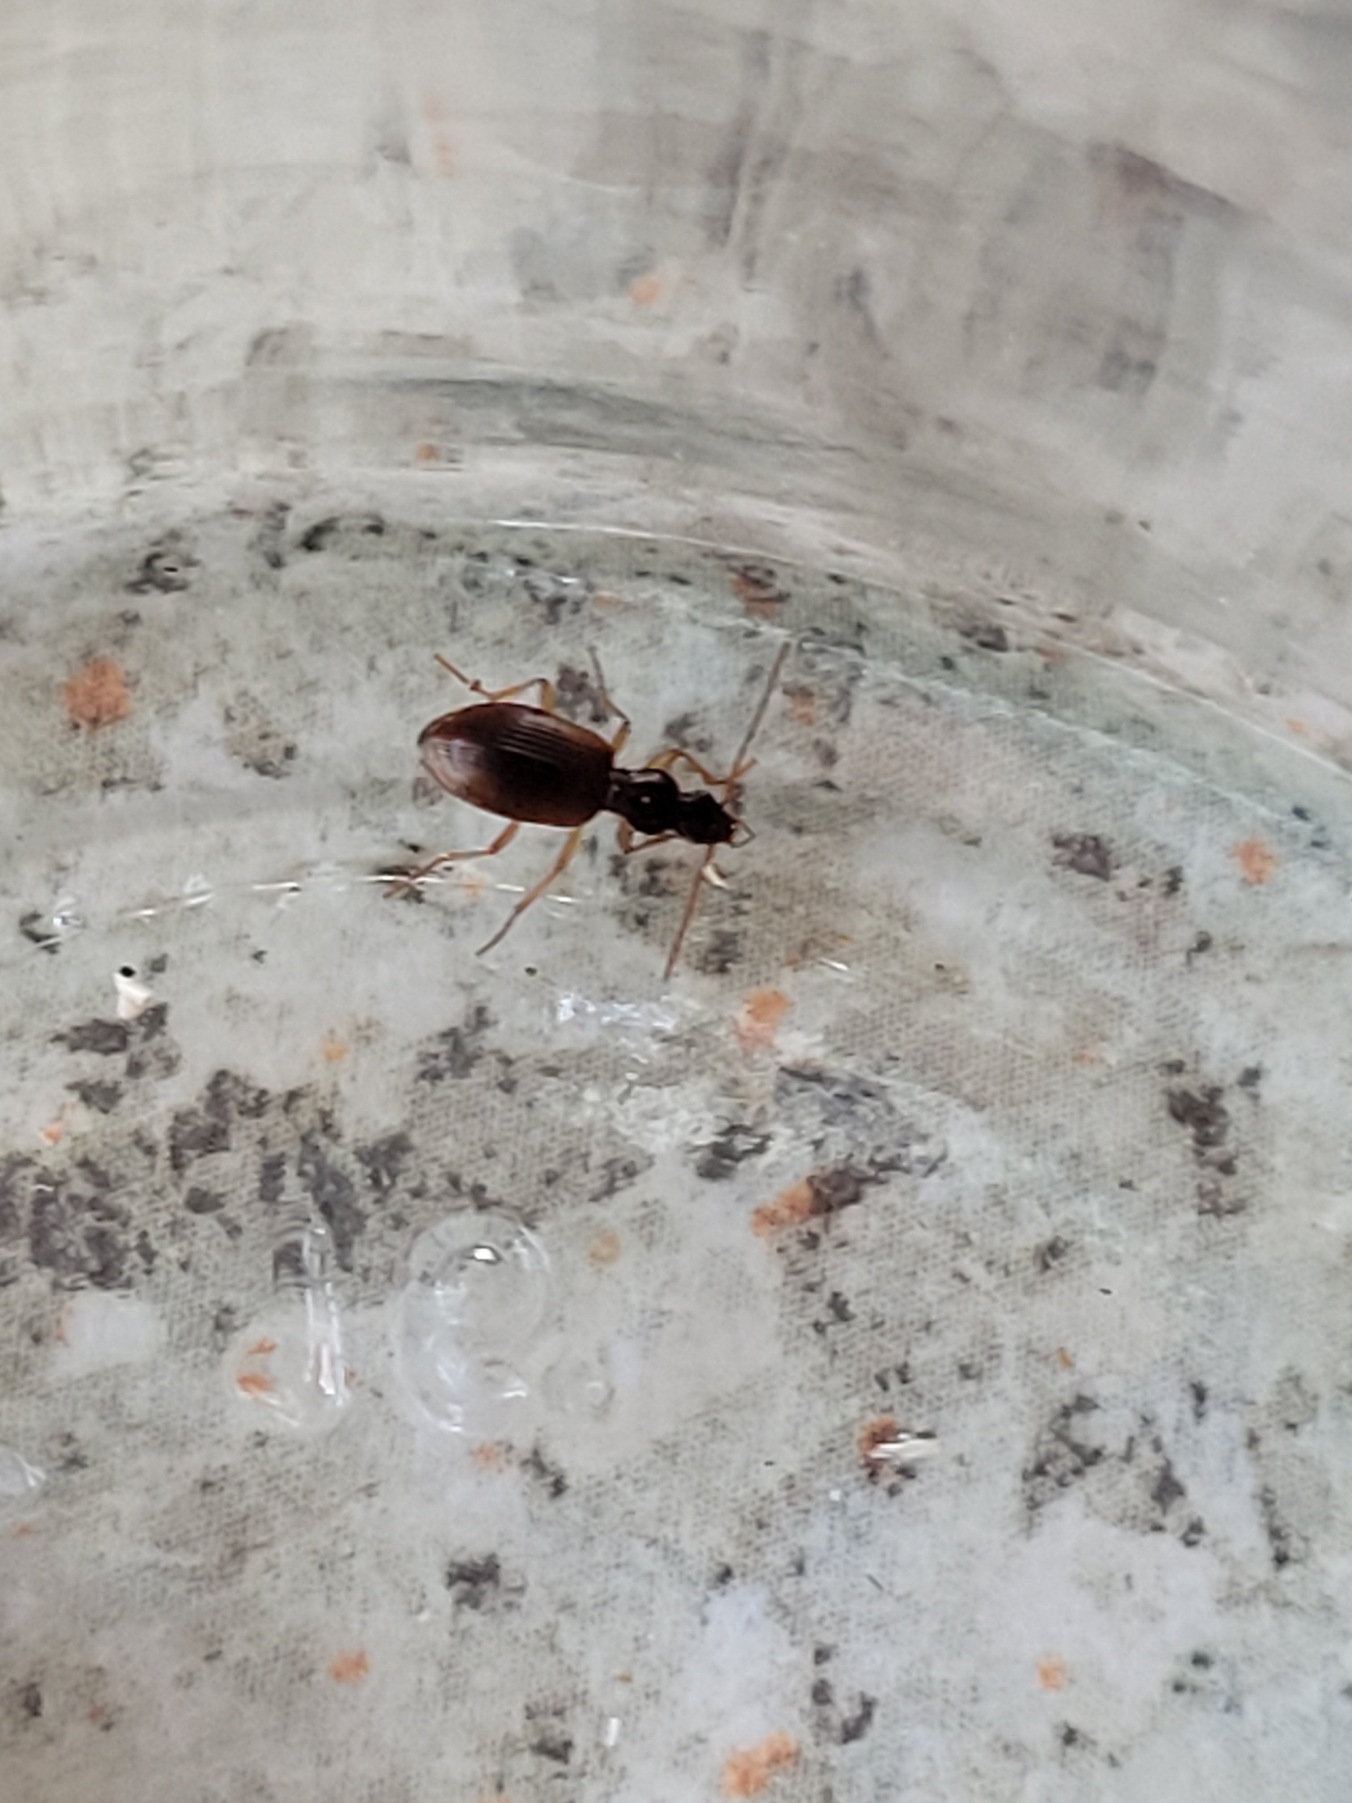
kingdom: Animalia
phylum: Arthropoda
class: Insecta
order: Coleoptera
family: Carabidae
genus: Oxypselaphus
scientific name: Oxypselaphus obscurus
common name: Rødbrun kvikløber
